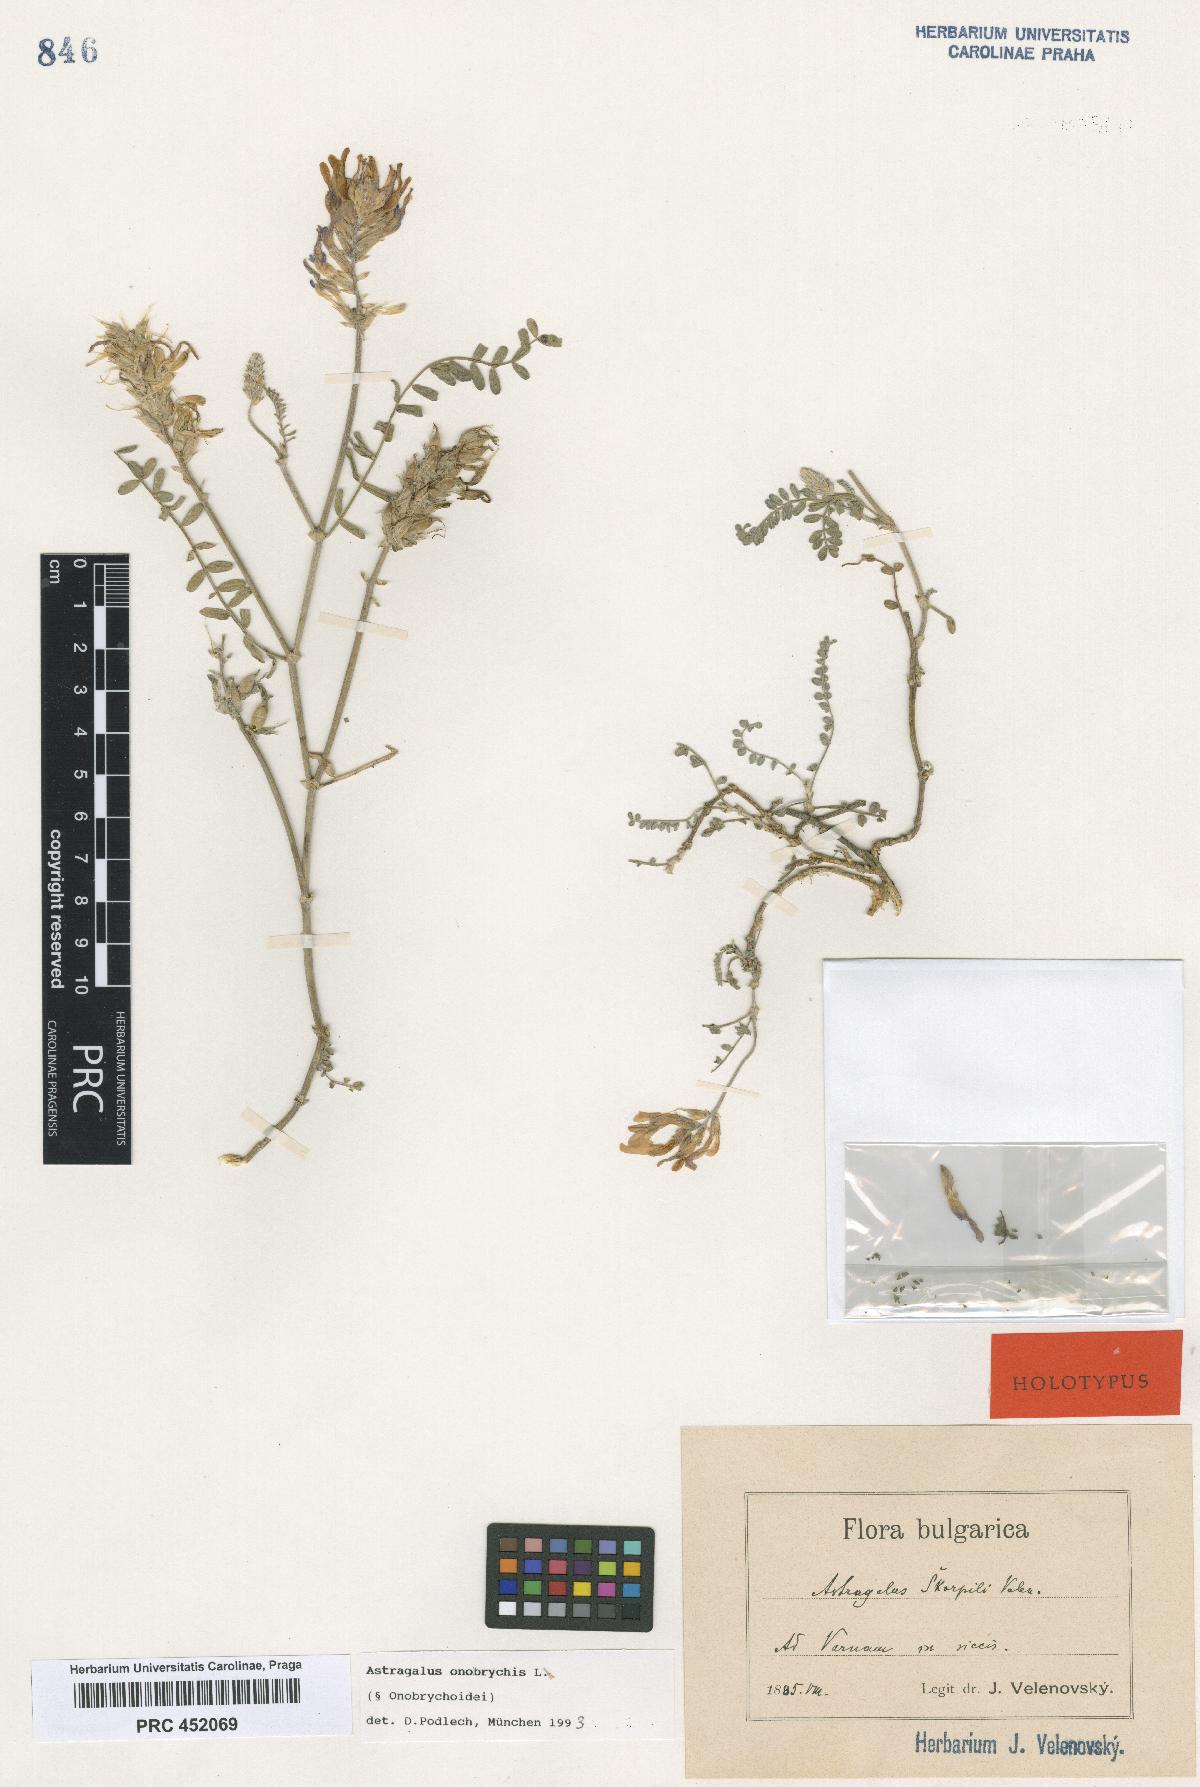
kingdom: Plantae
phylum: Tracheophyta
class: Magnoliopsida
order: Fabales
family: Fabaceae
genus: Astragalus
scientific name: Astragalus onobrychis
